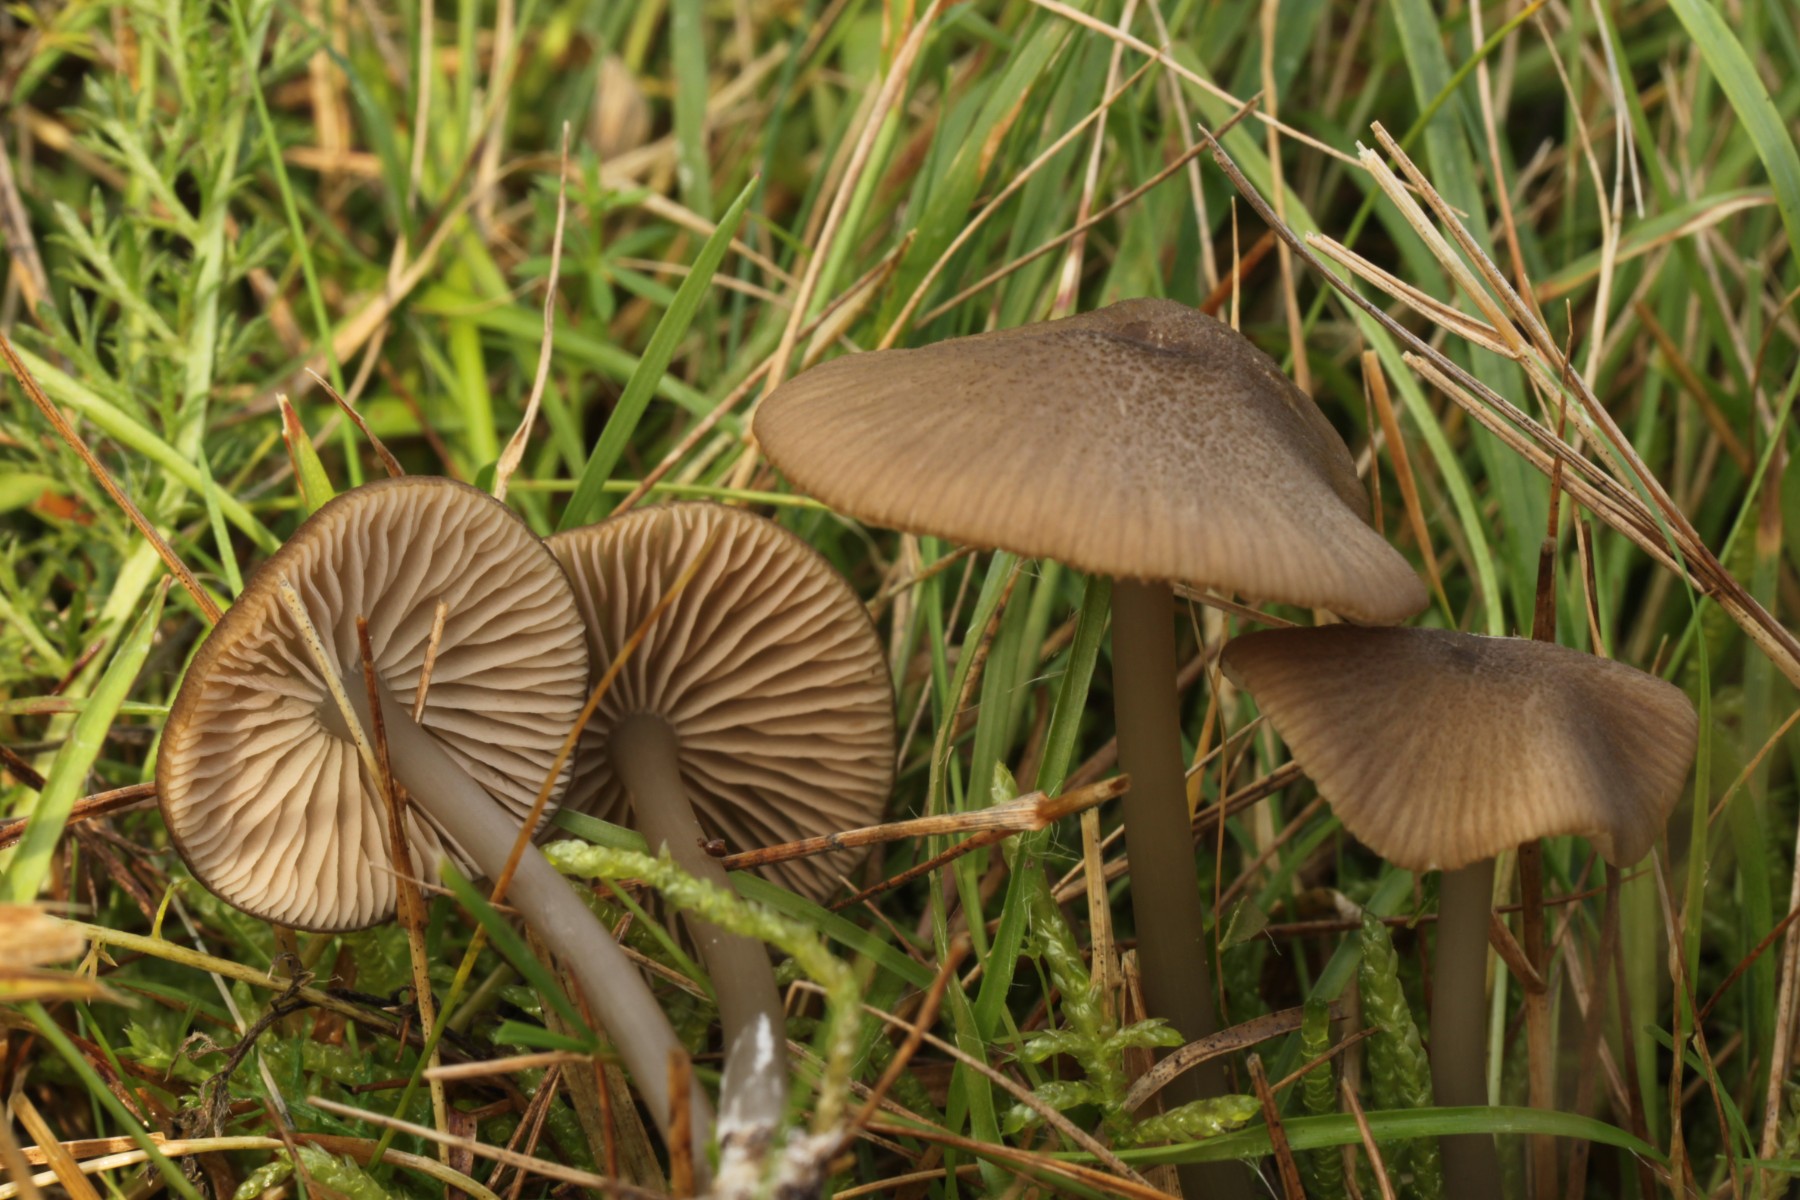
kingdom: Fungi
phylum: Basidiomycota
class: Agaricomycetes
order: Agaricales
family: Entolomataceae
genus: Entoloma
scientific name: Entoloma anatinum
